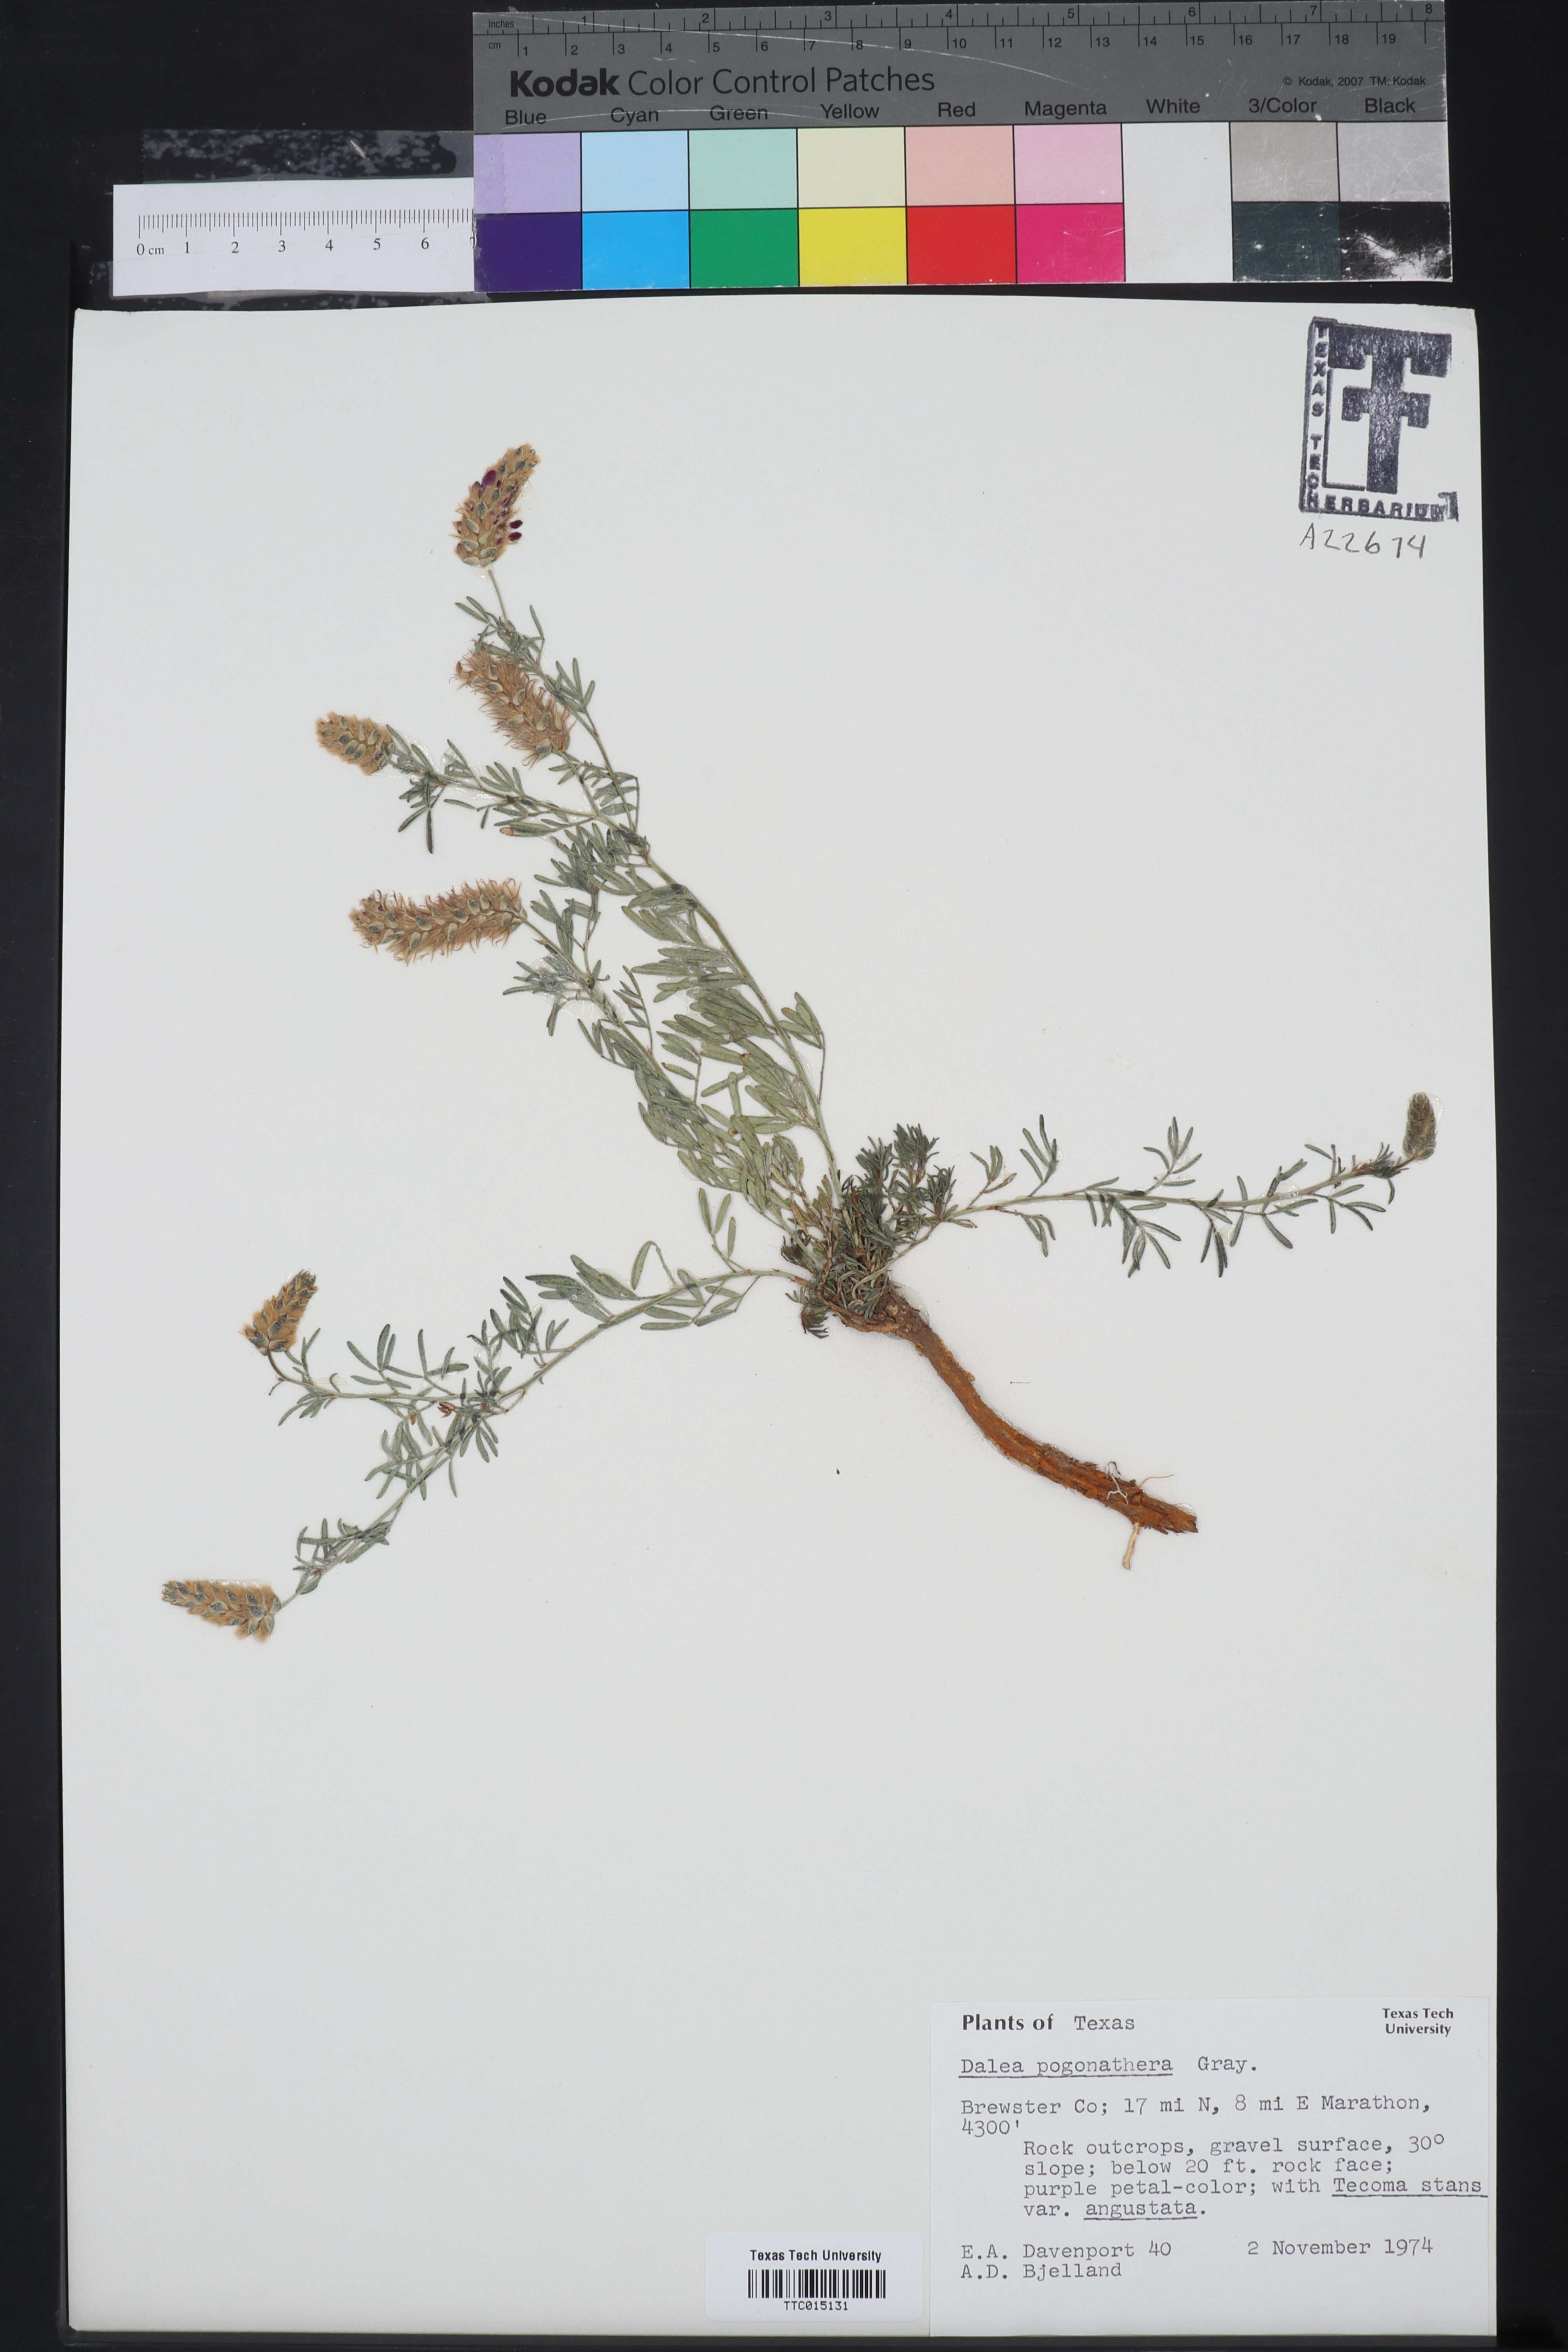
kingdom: Plantae
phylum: Tracheophyta
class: Magnoliopsida
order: Fabales
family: Fabaceae
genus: Dalea
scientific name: Dalea pogonathera
